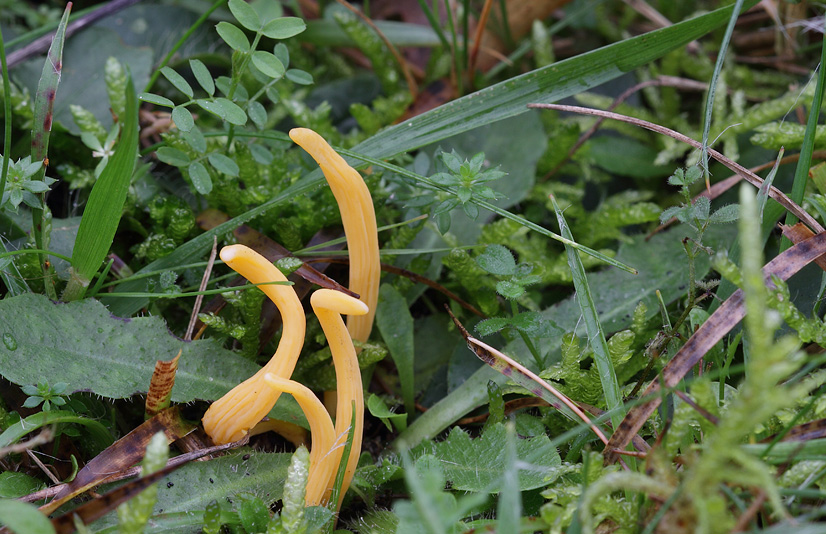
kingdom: Fungi
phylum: Basidiomycota
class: Agaricomycetes
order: Agaricales
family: Clavariaceae
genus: Clavulinopsis
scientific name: Clavulinopsis luteoalba
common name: abrikos-køllesvamp
